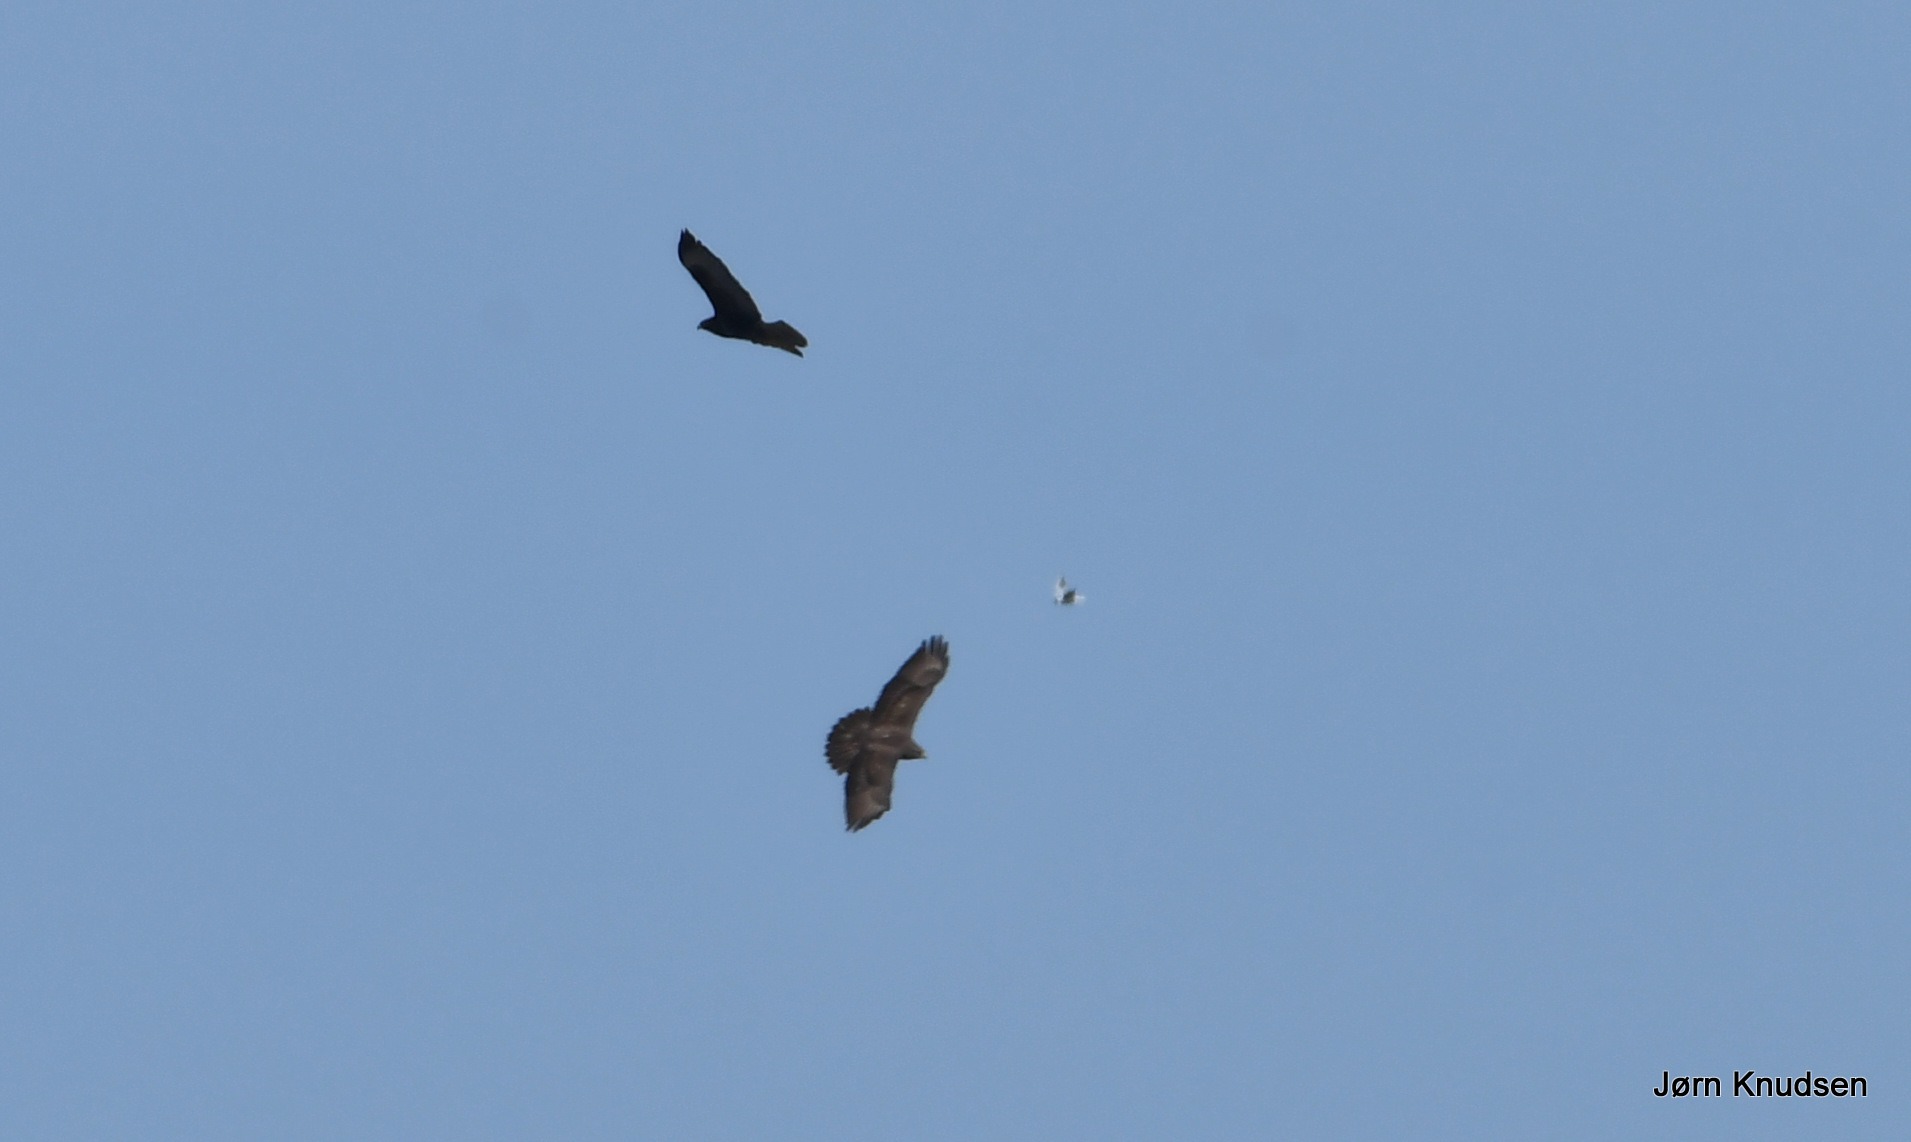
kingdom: Animalia
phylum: Chordata
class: Aves
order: Accipitriformes
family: Accipitridae
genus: Buteo
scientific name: Buteo buteo
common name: Musvåge
